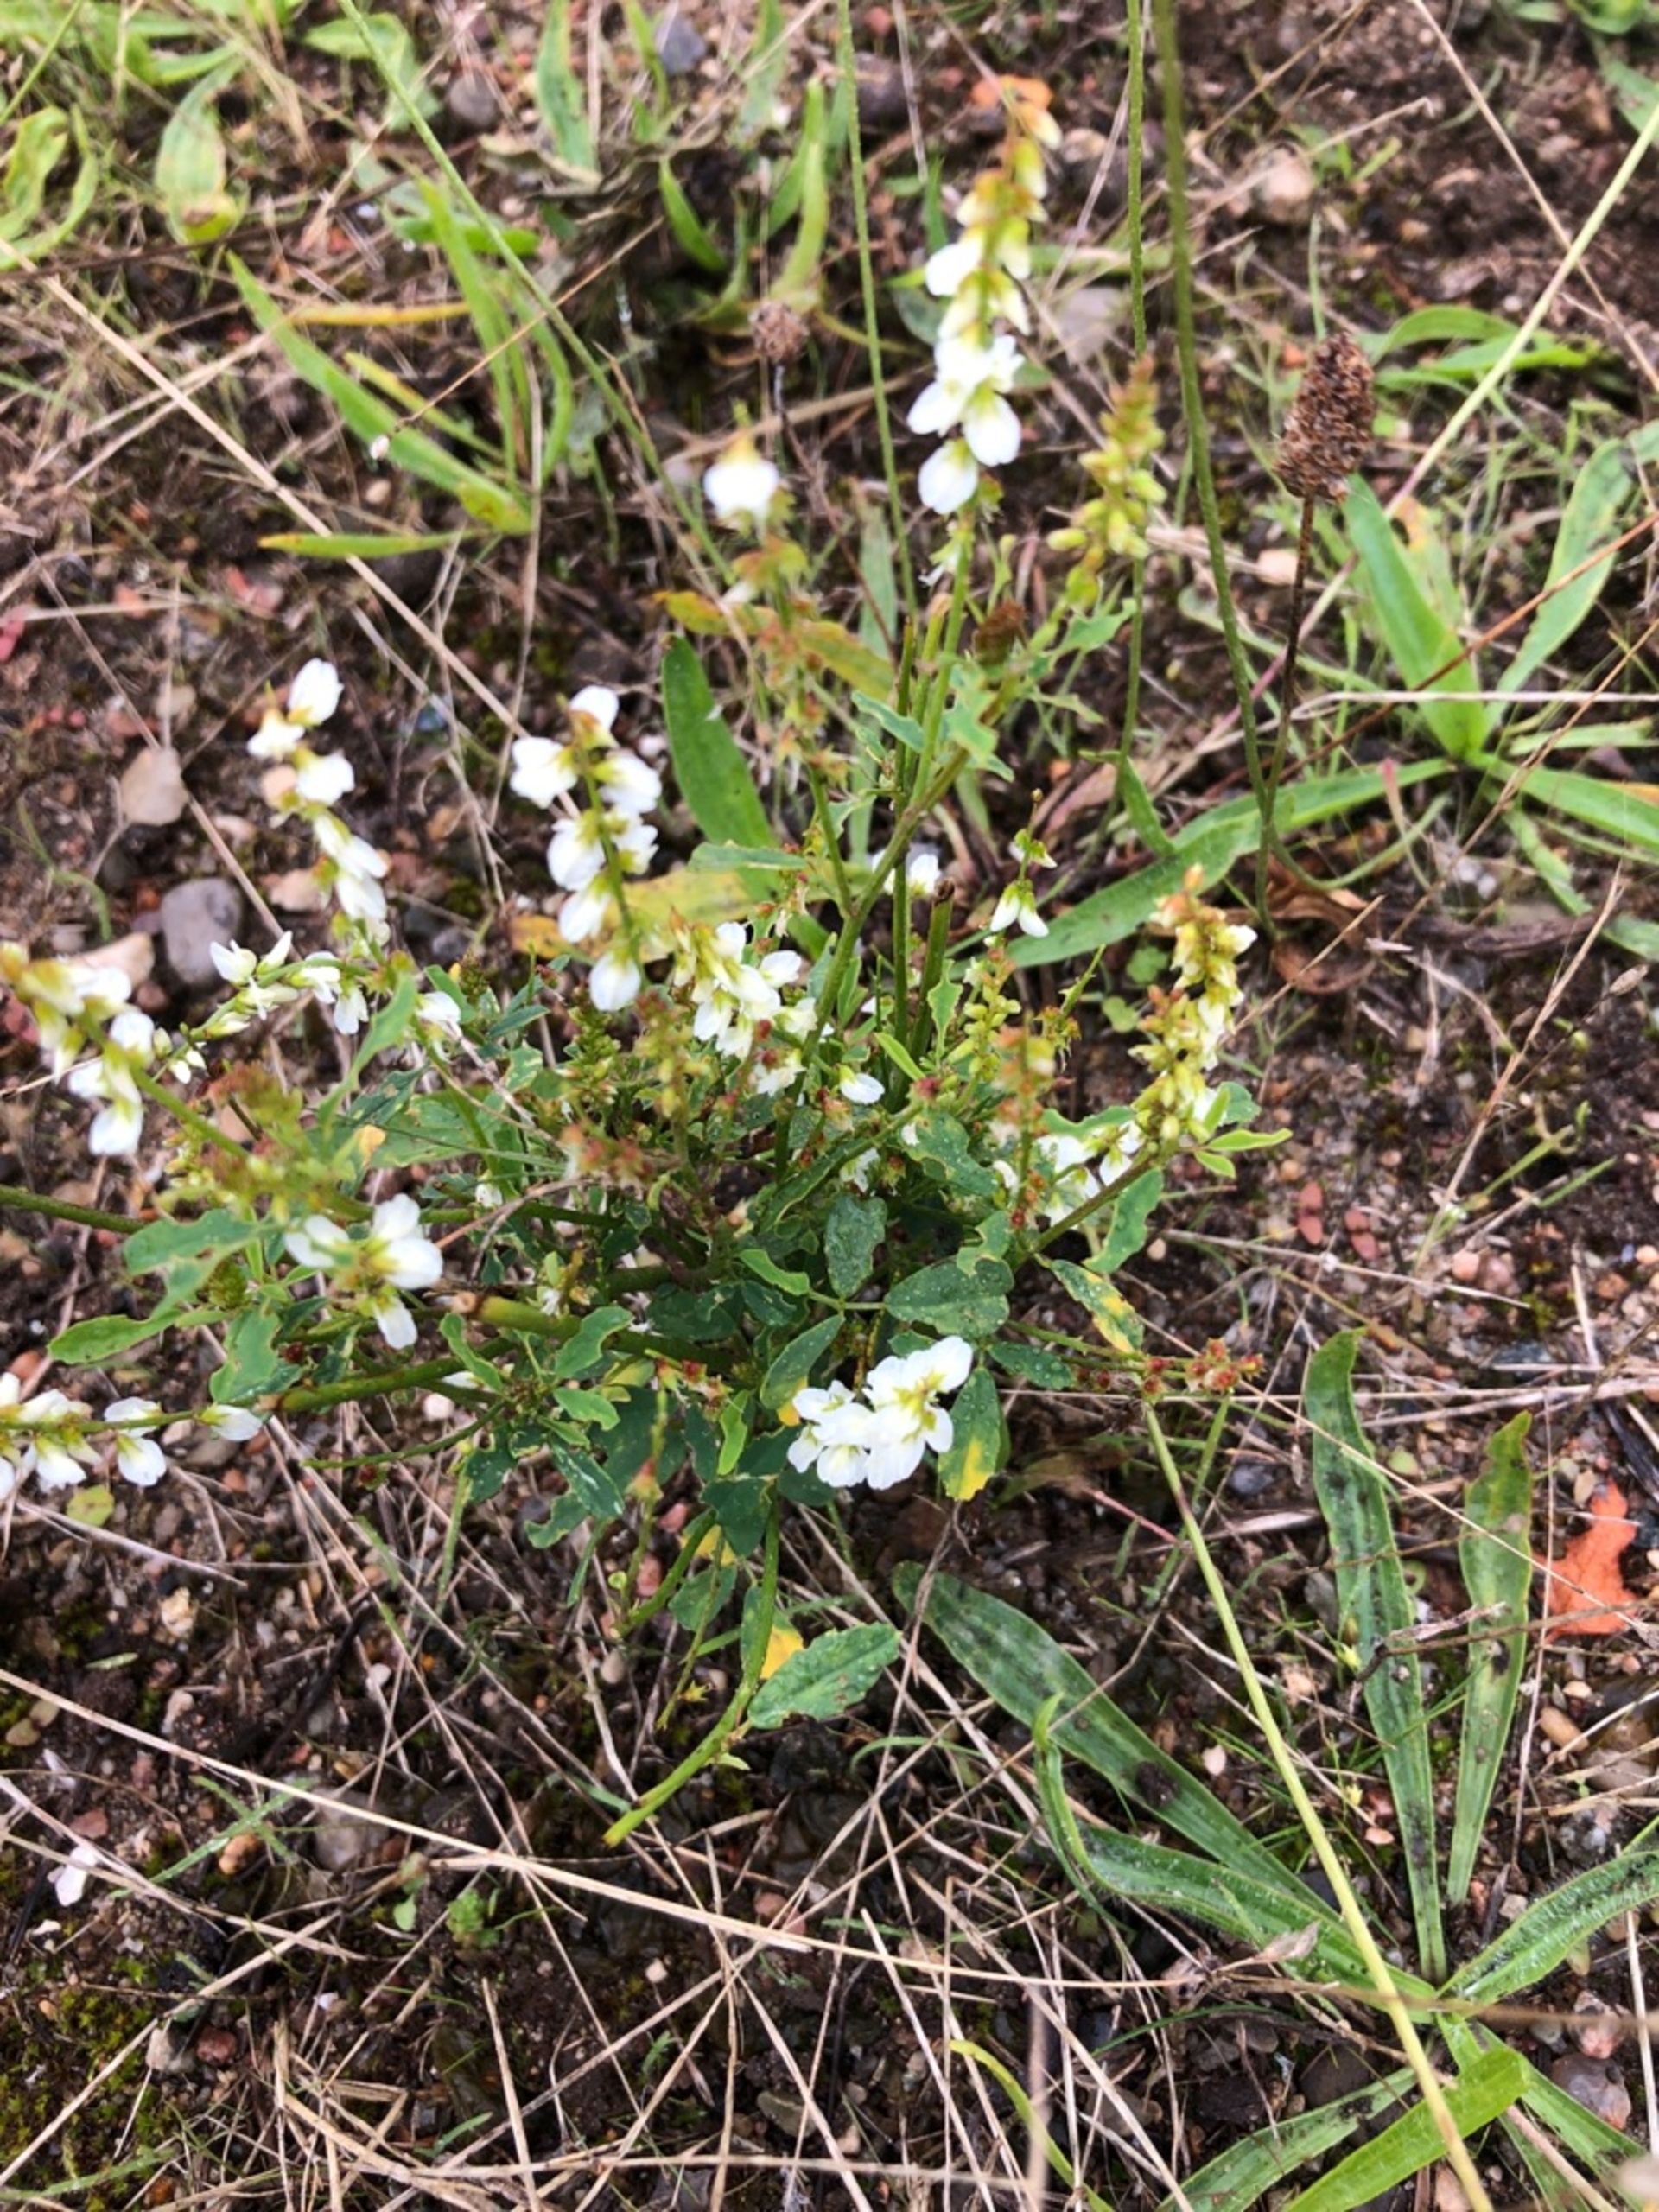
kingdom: Plantae
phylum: Tracheophyta
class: Magnoliopsida
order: Fabales
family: Fabaceae
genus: Melilotus
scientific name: Melilotus albus
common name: Hvid stenkløver
